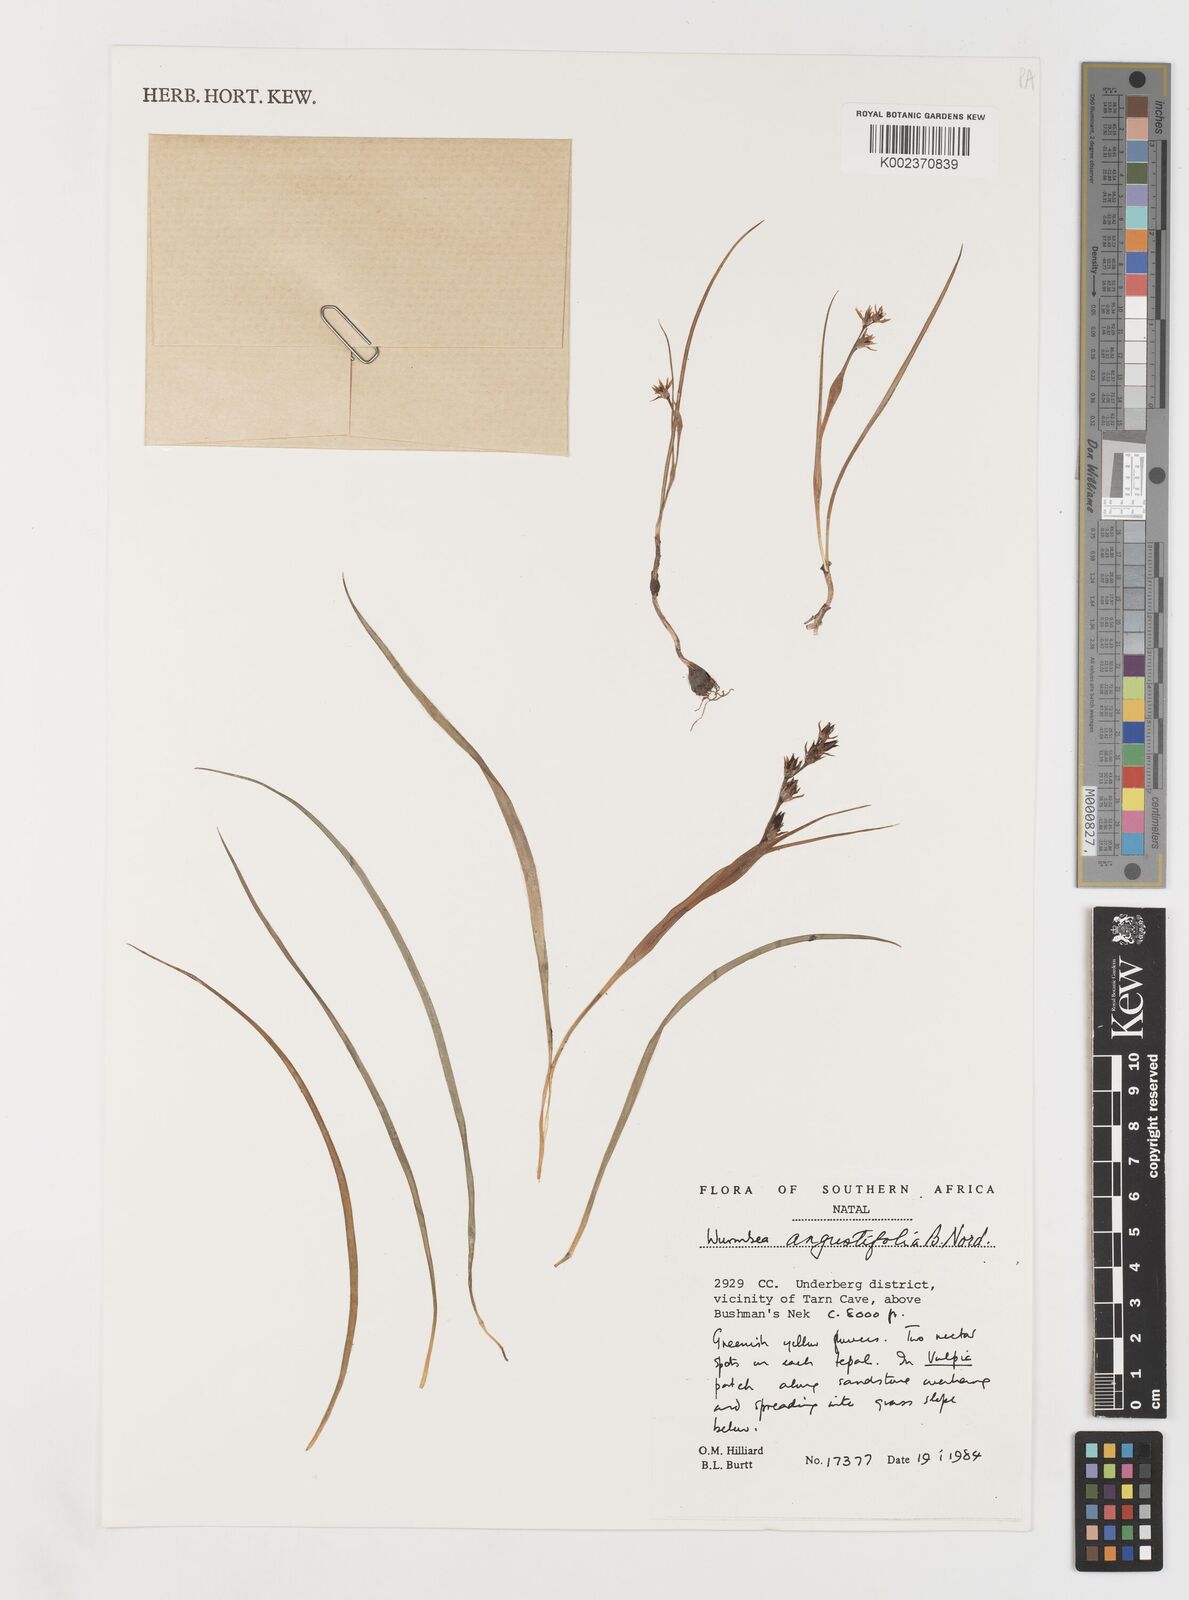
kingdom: Plantae
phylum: Tracheophyta
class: Liliopsida
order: Liliales
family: Colchicaceae
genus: Wurmbea
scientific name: Wurmbea angustifolia
